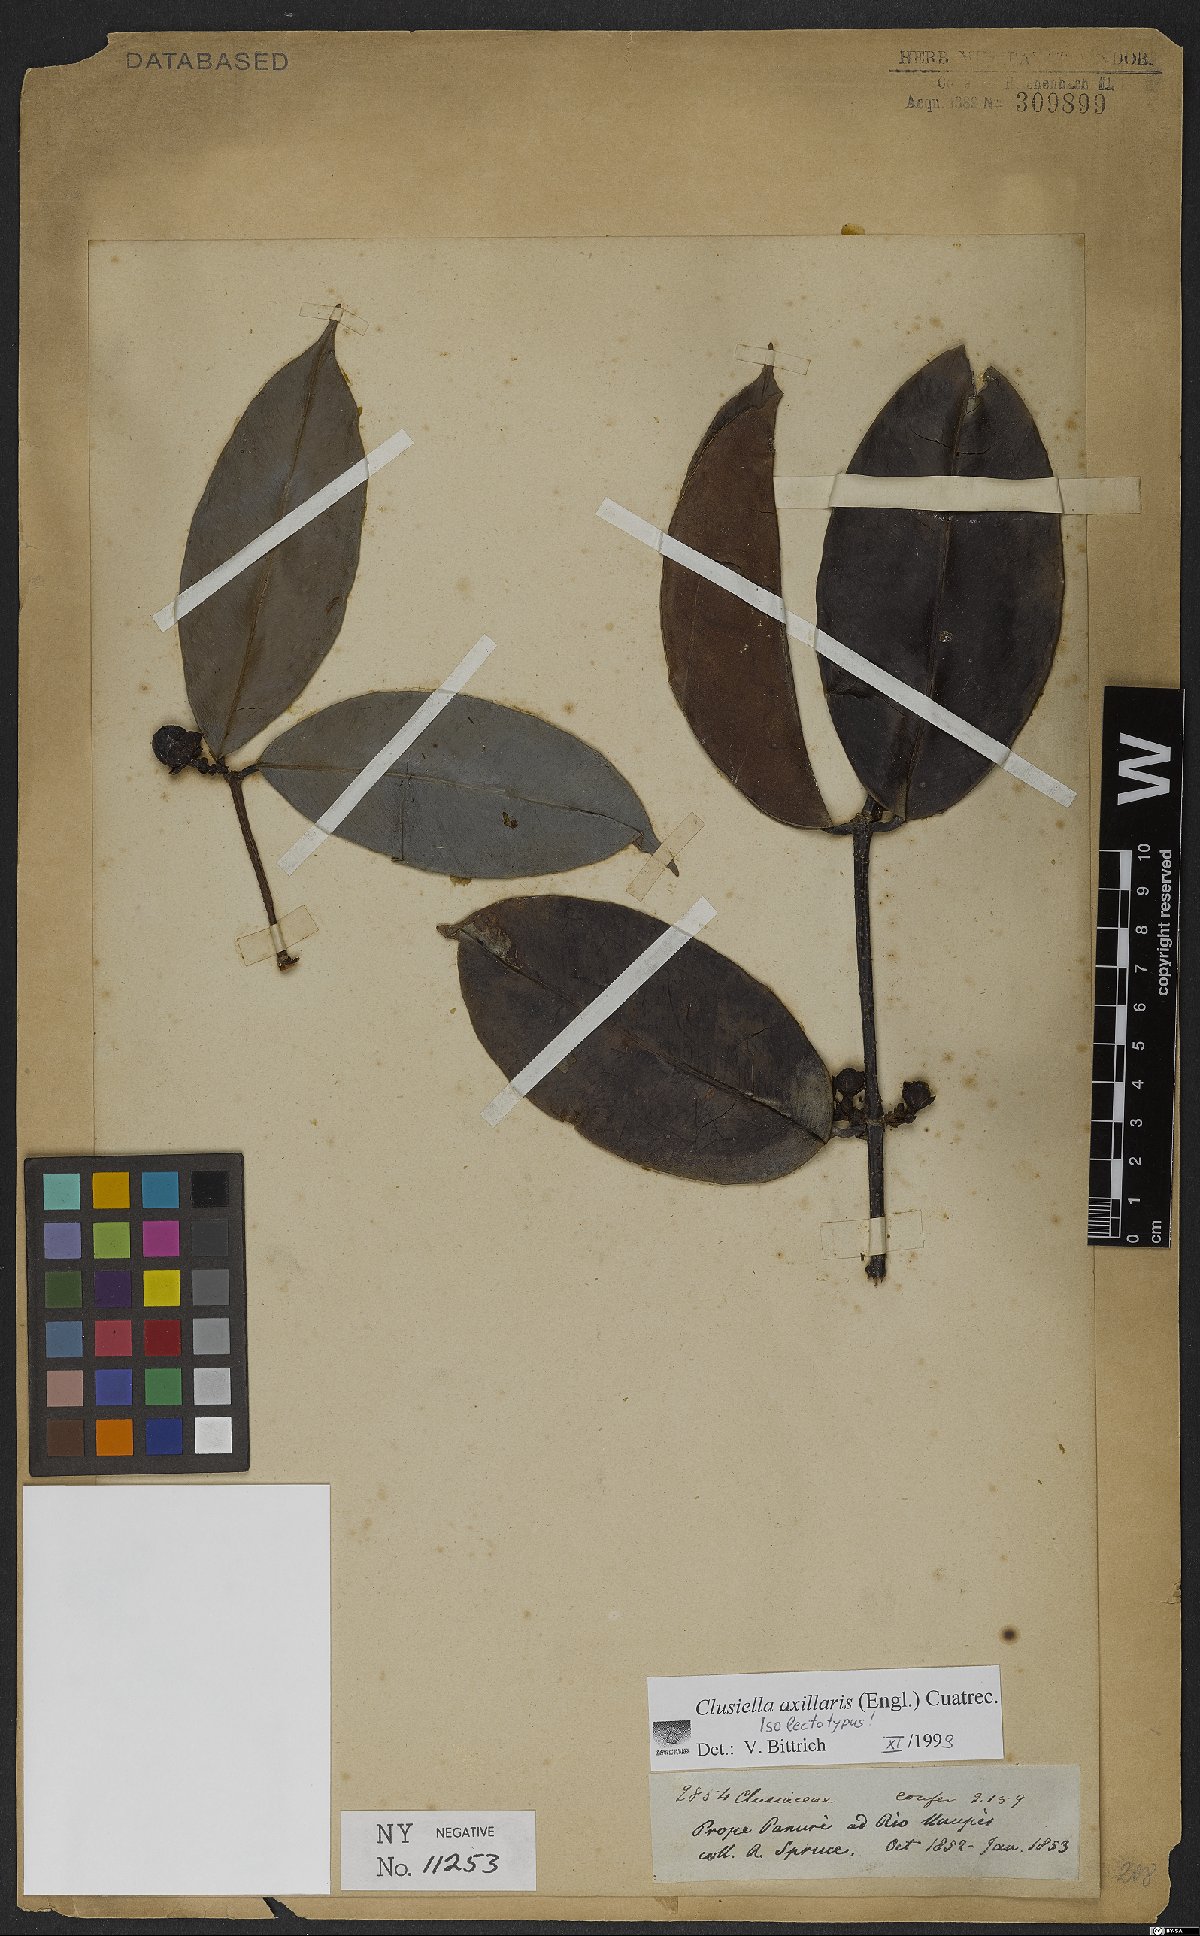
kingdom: Plantae
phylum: Tracheophyta
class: Magnoliopsida
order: Malpighiales
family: Calophyllaceae
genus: Clusiella
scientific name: Clusiella axillaris
